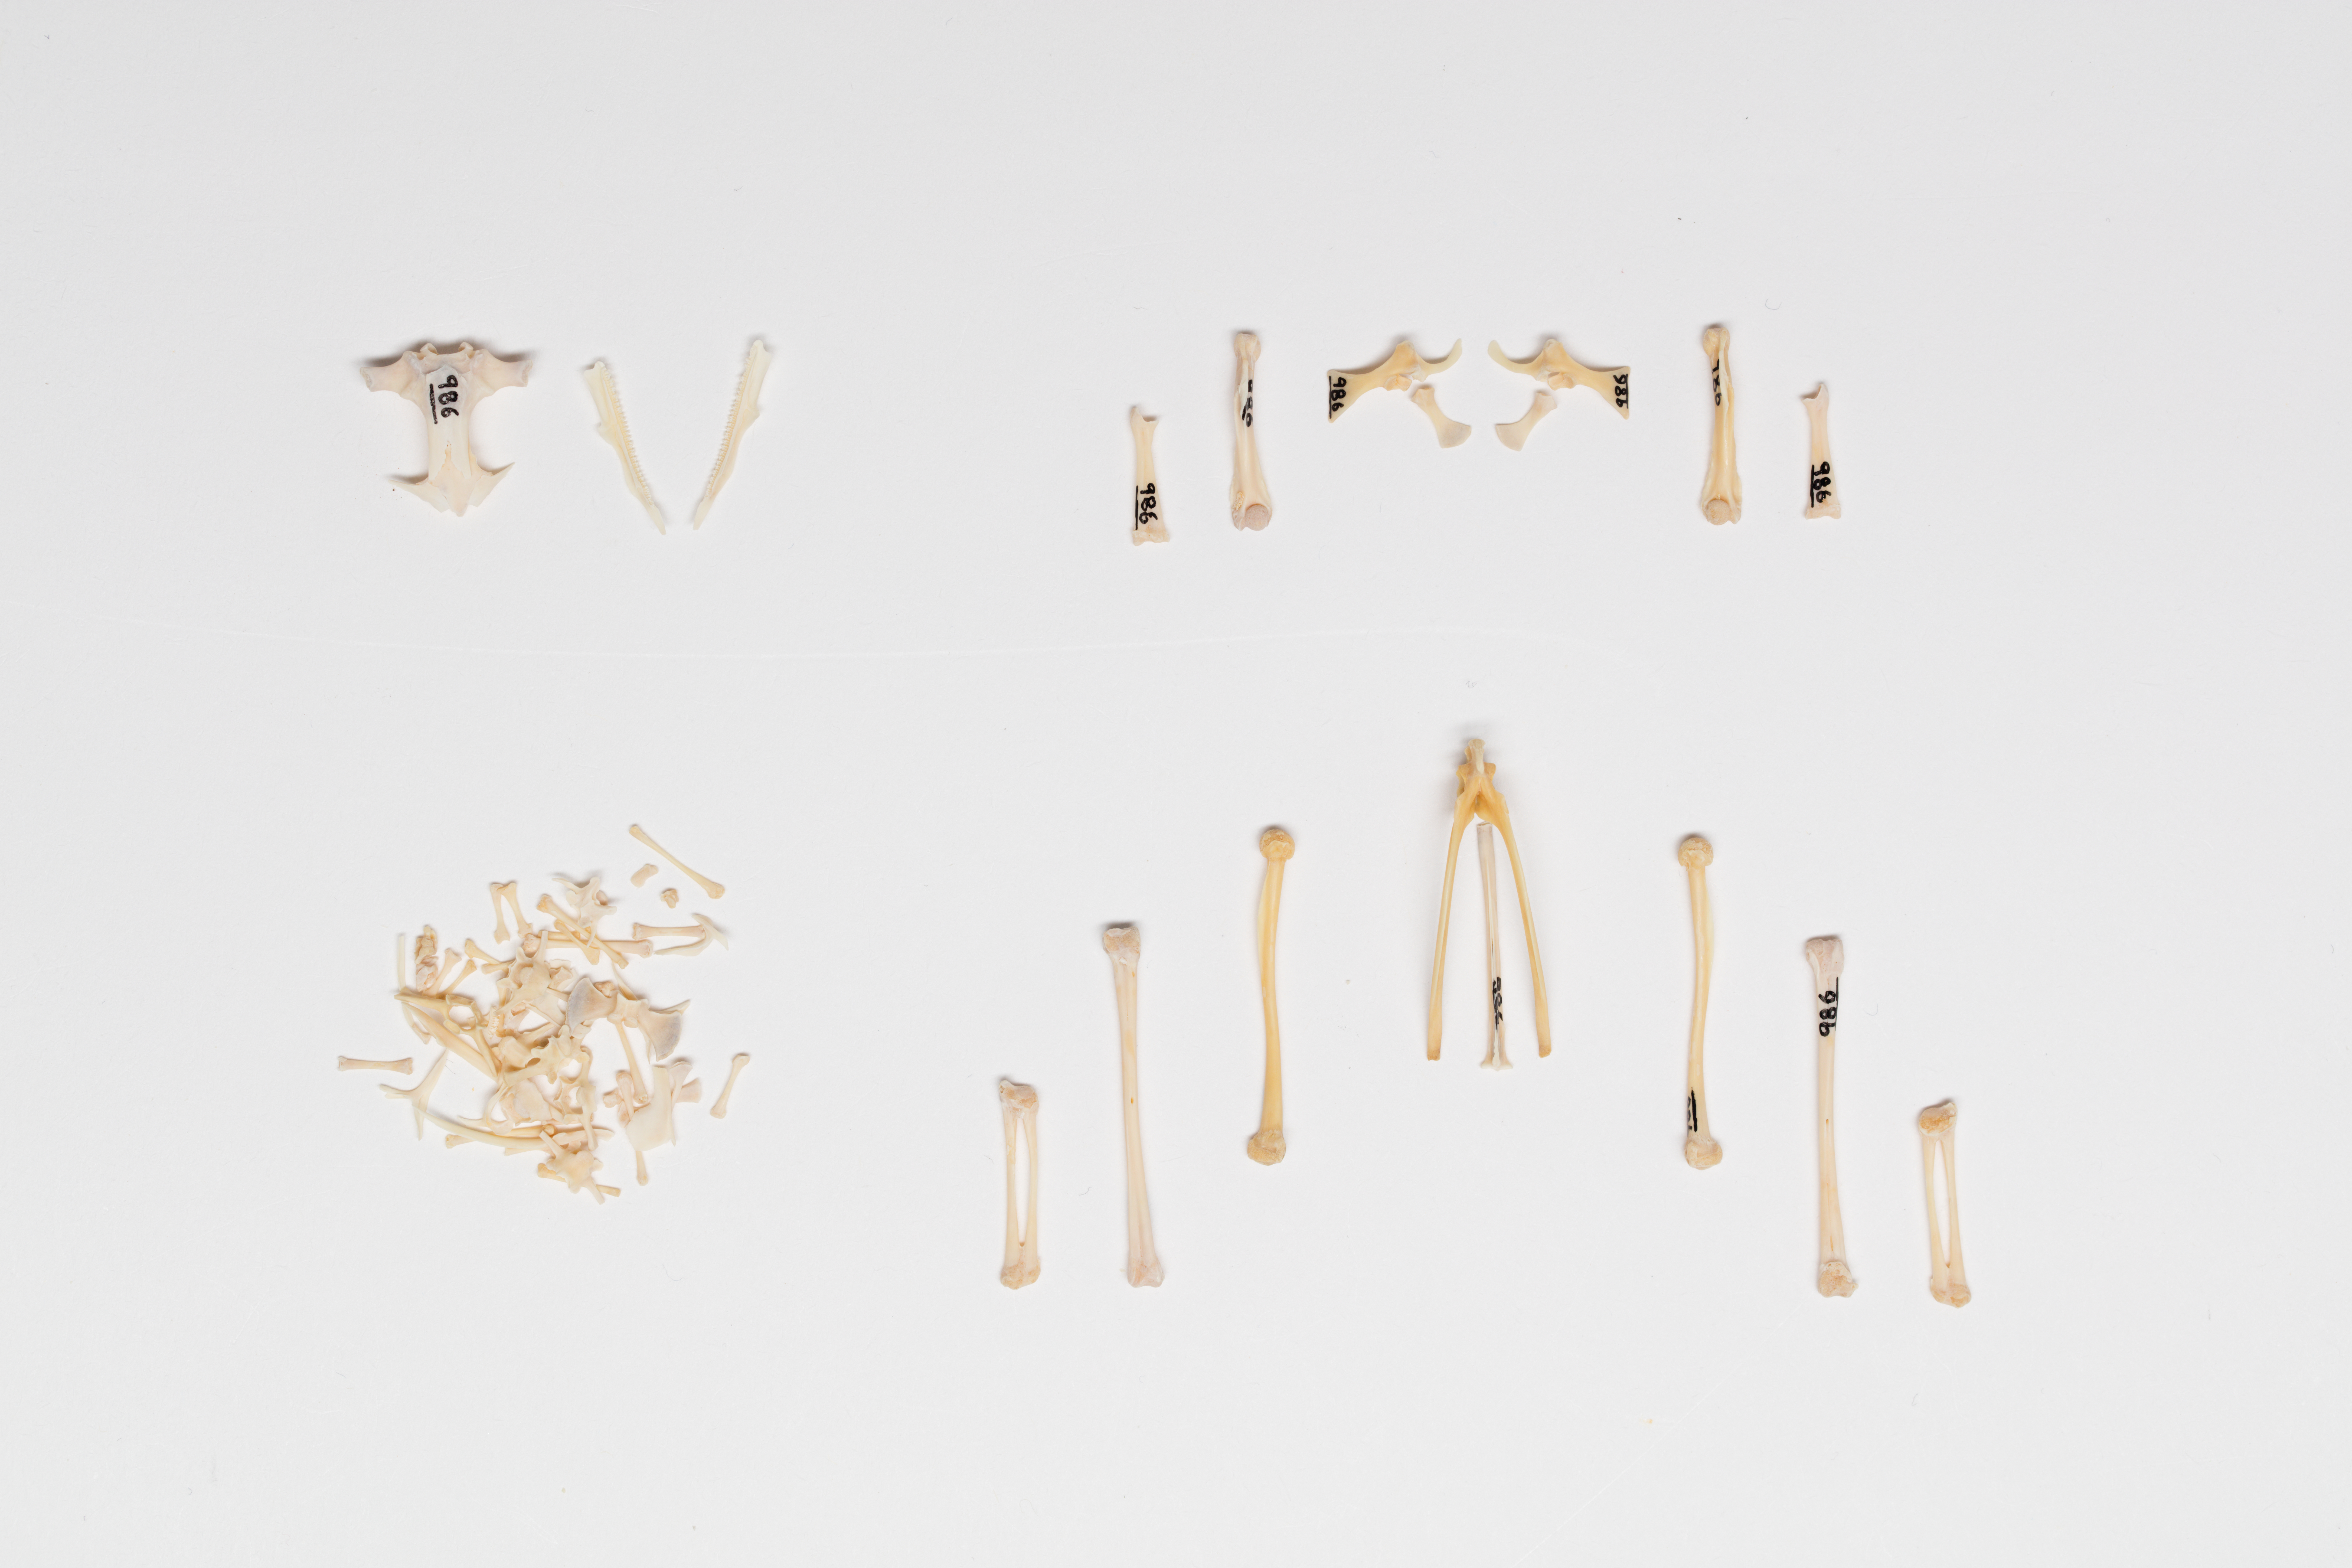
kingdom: Animalia
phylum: Chordata
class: Amphibia
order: Anura
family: Pelodryadidae
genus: Ranoidea
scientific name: Ranoidea aurea
